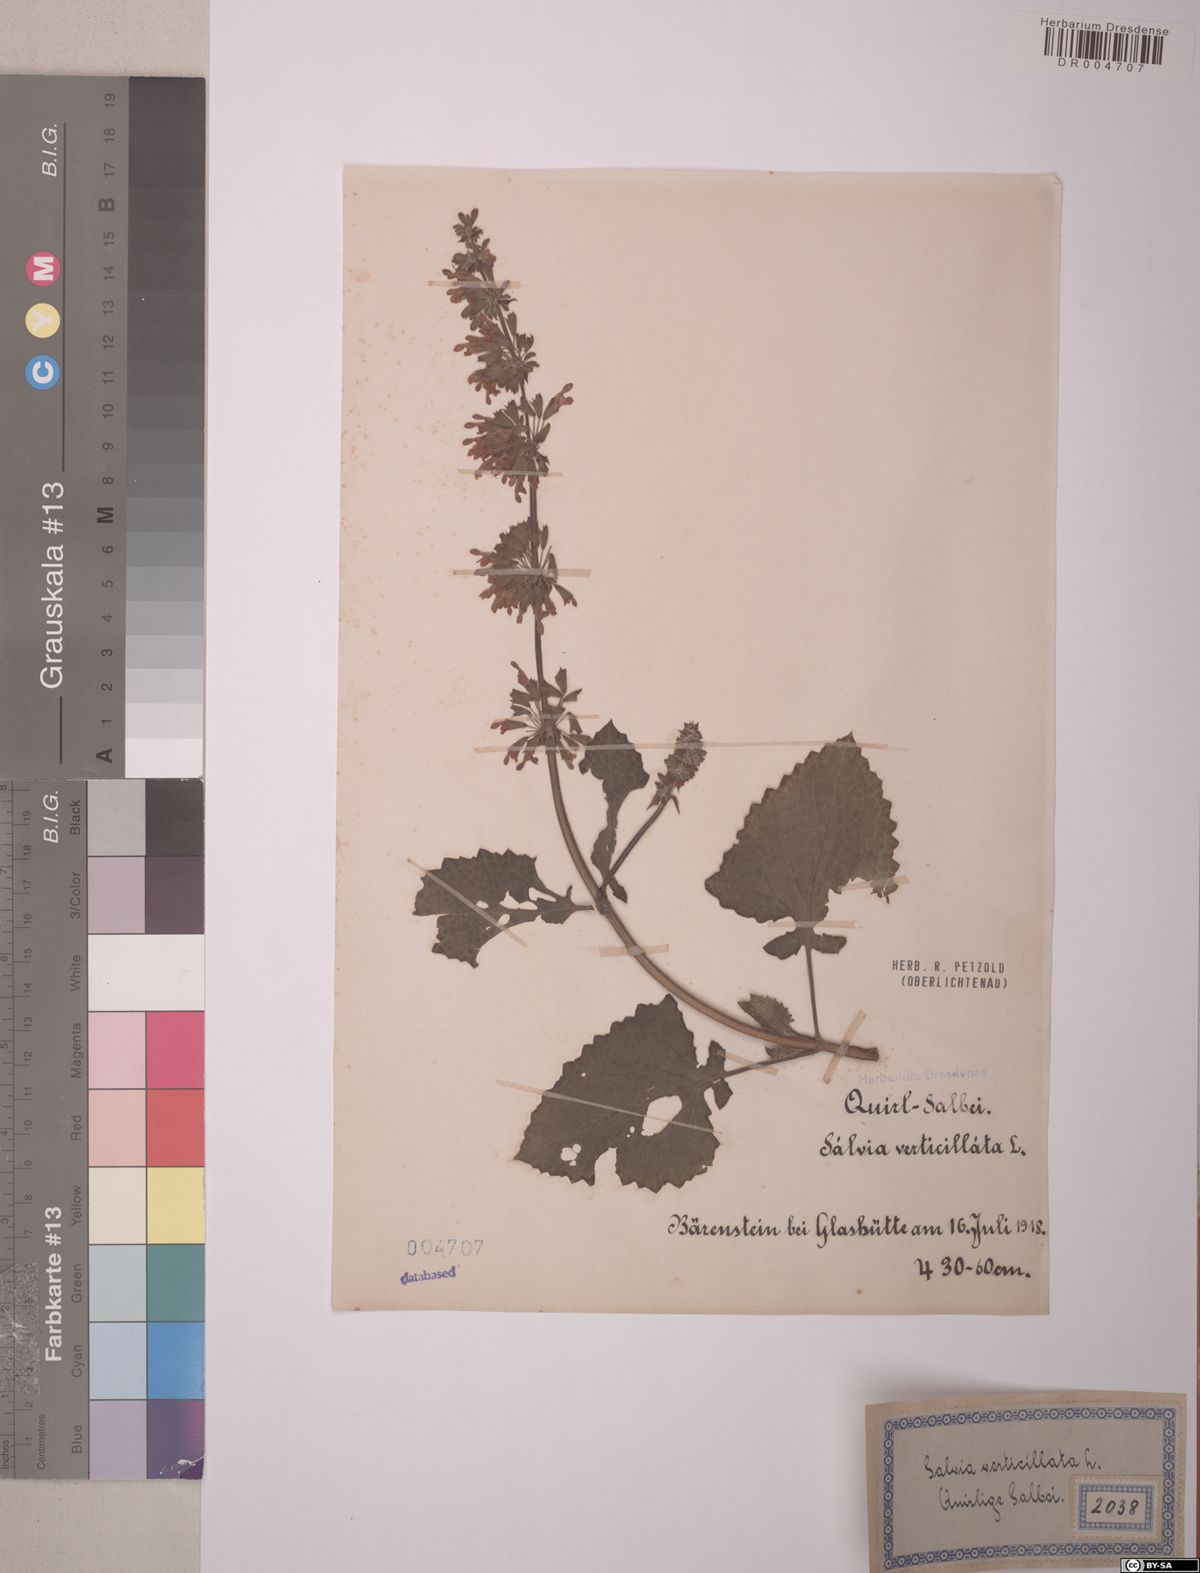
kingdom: Plantae
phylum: Tracheophyta
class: Magnoliopsida
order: Lamiales
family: Lamiaceae
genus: Salvia
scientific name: Salvia verticillata
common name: Whorled clary
